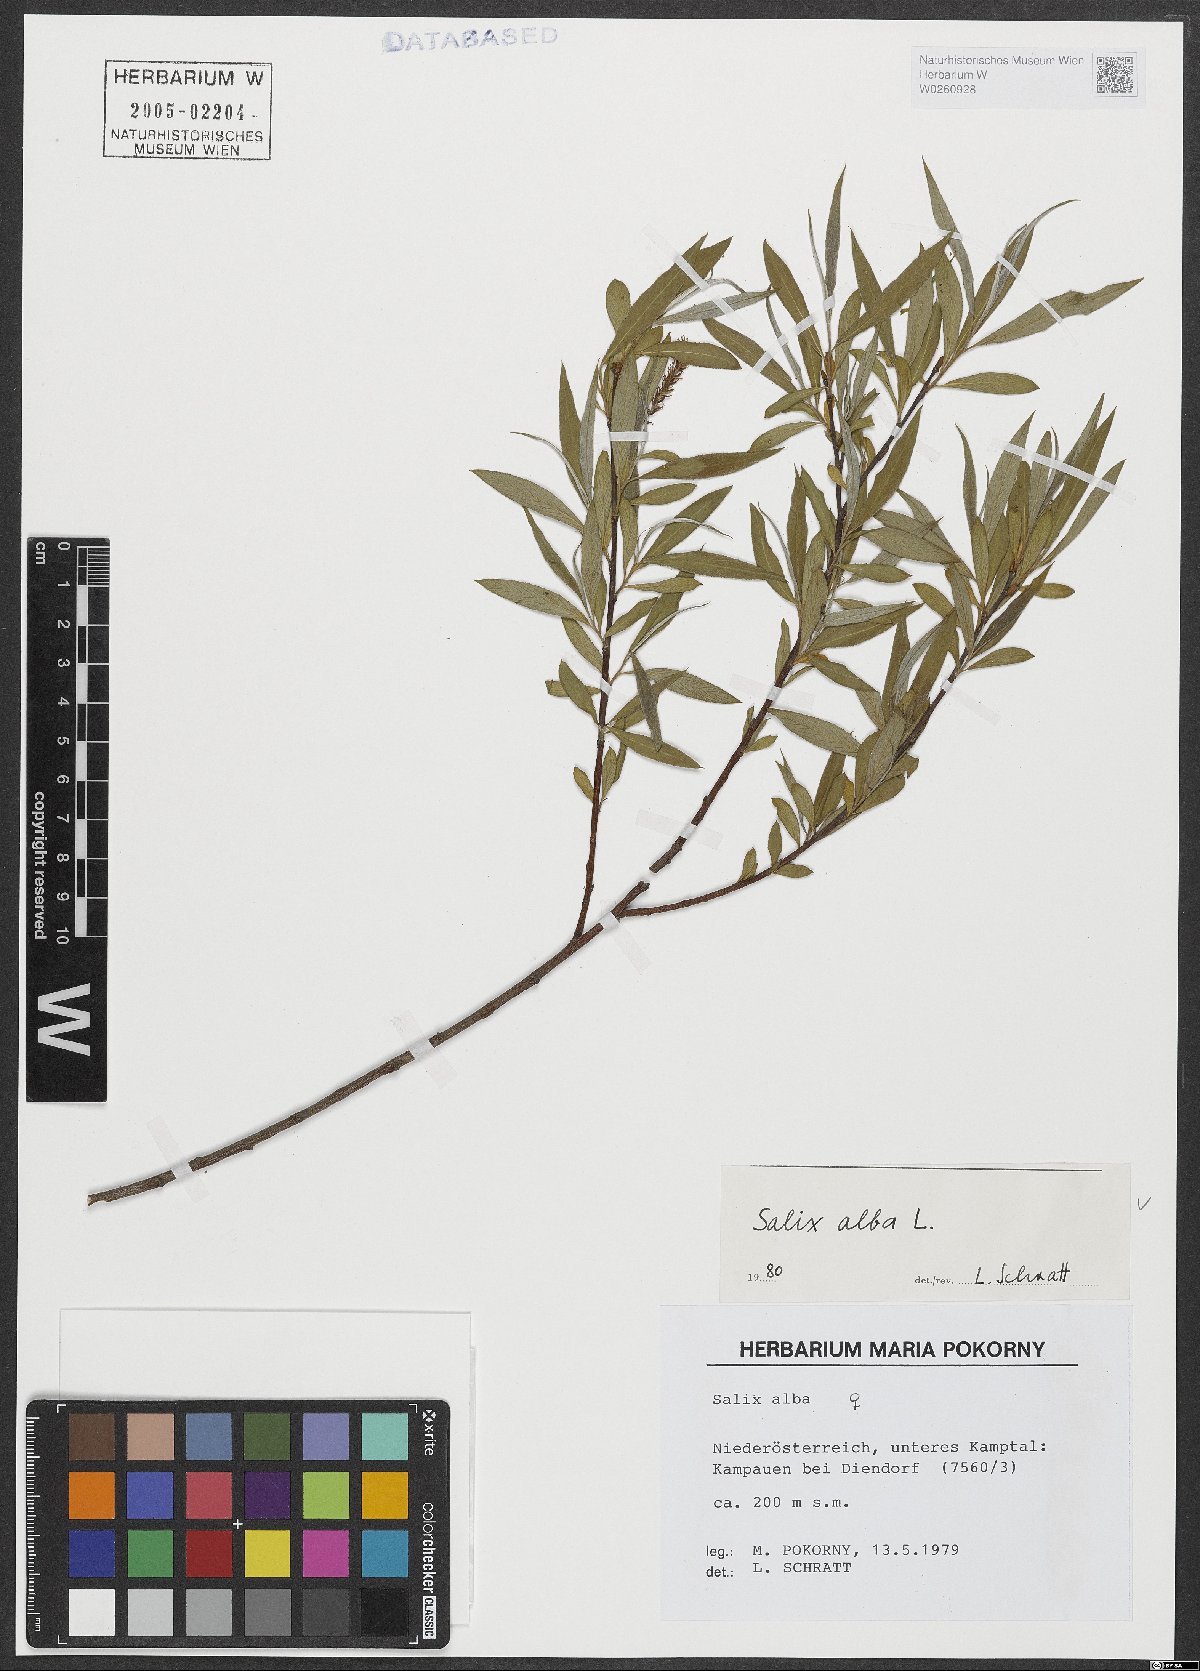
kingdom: Plantae
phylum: Tracheophyta
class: Magnoliopsida
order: Malpighiales
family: Salicaceae
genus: Salix
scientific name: Salix alba
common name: White willow
